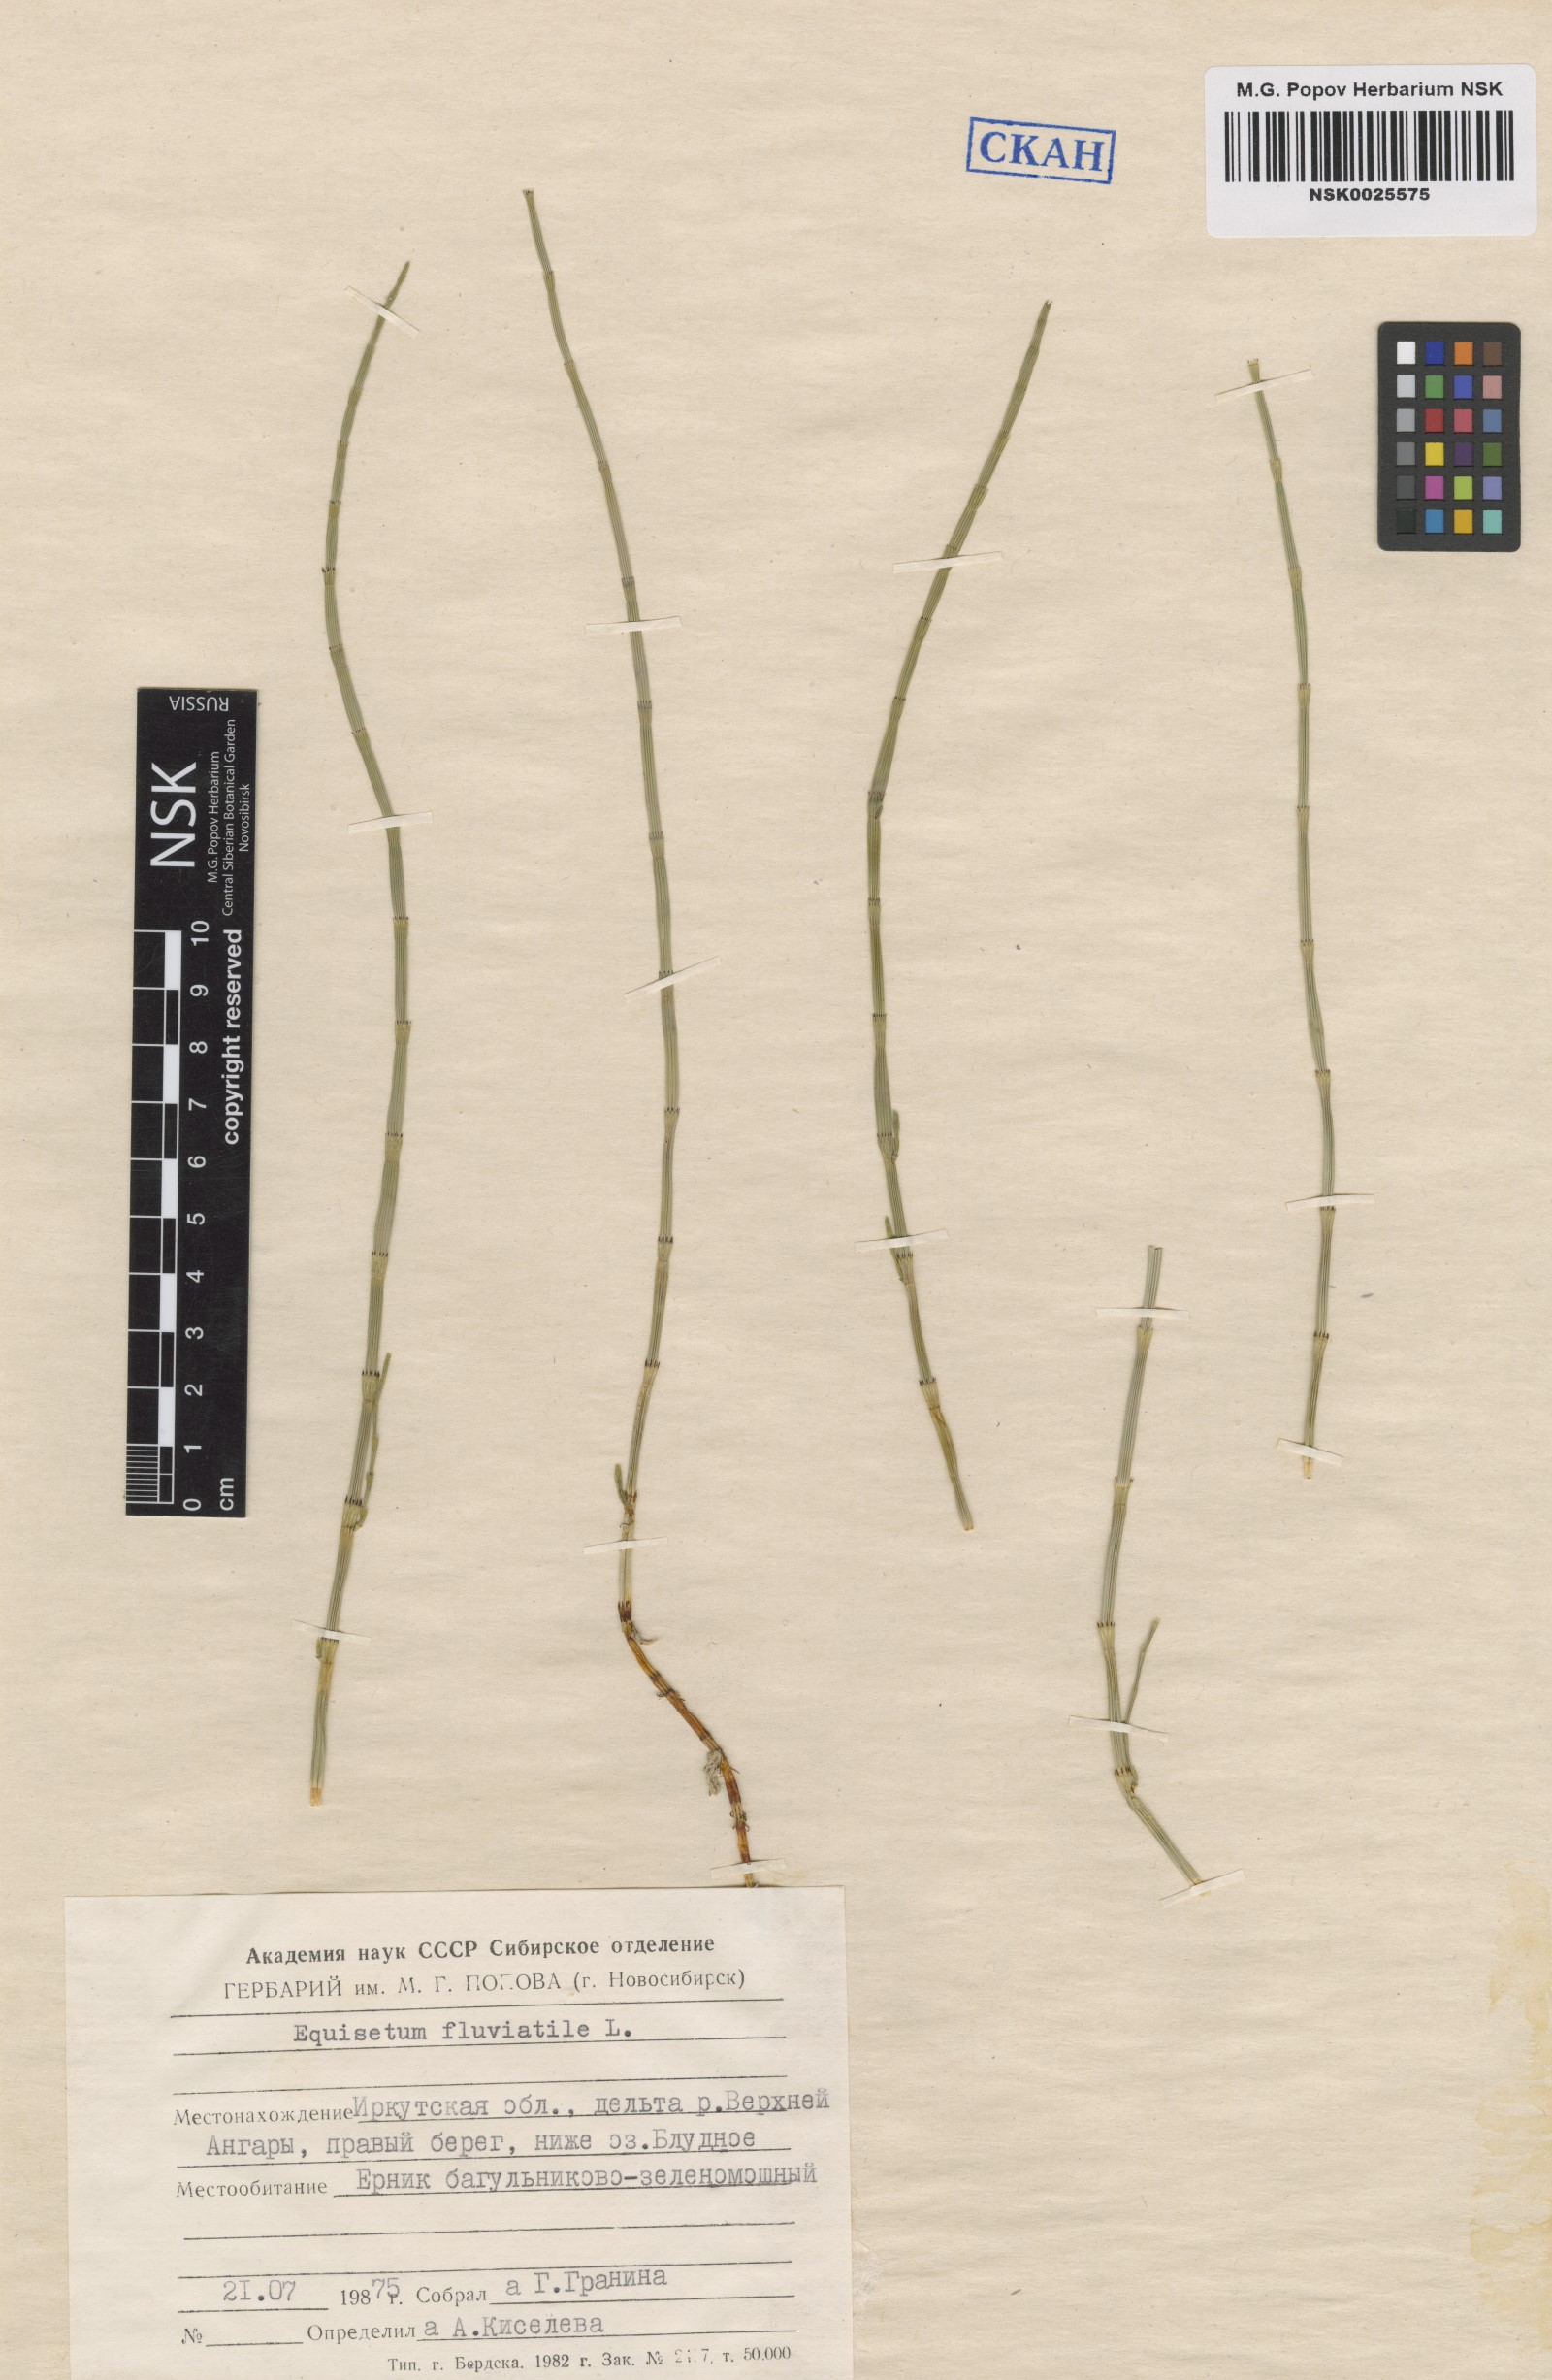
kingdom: Plantae
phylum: Tracheophyta
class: Polypodiopsida
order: Equisetales
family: Equisetaceae
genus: Equisetum
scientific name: Equisetum fluviatile
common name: Water horsetail
